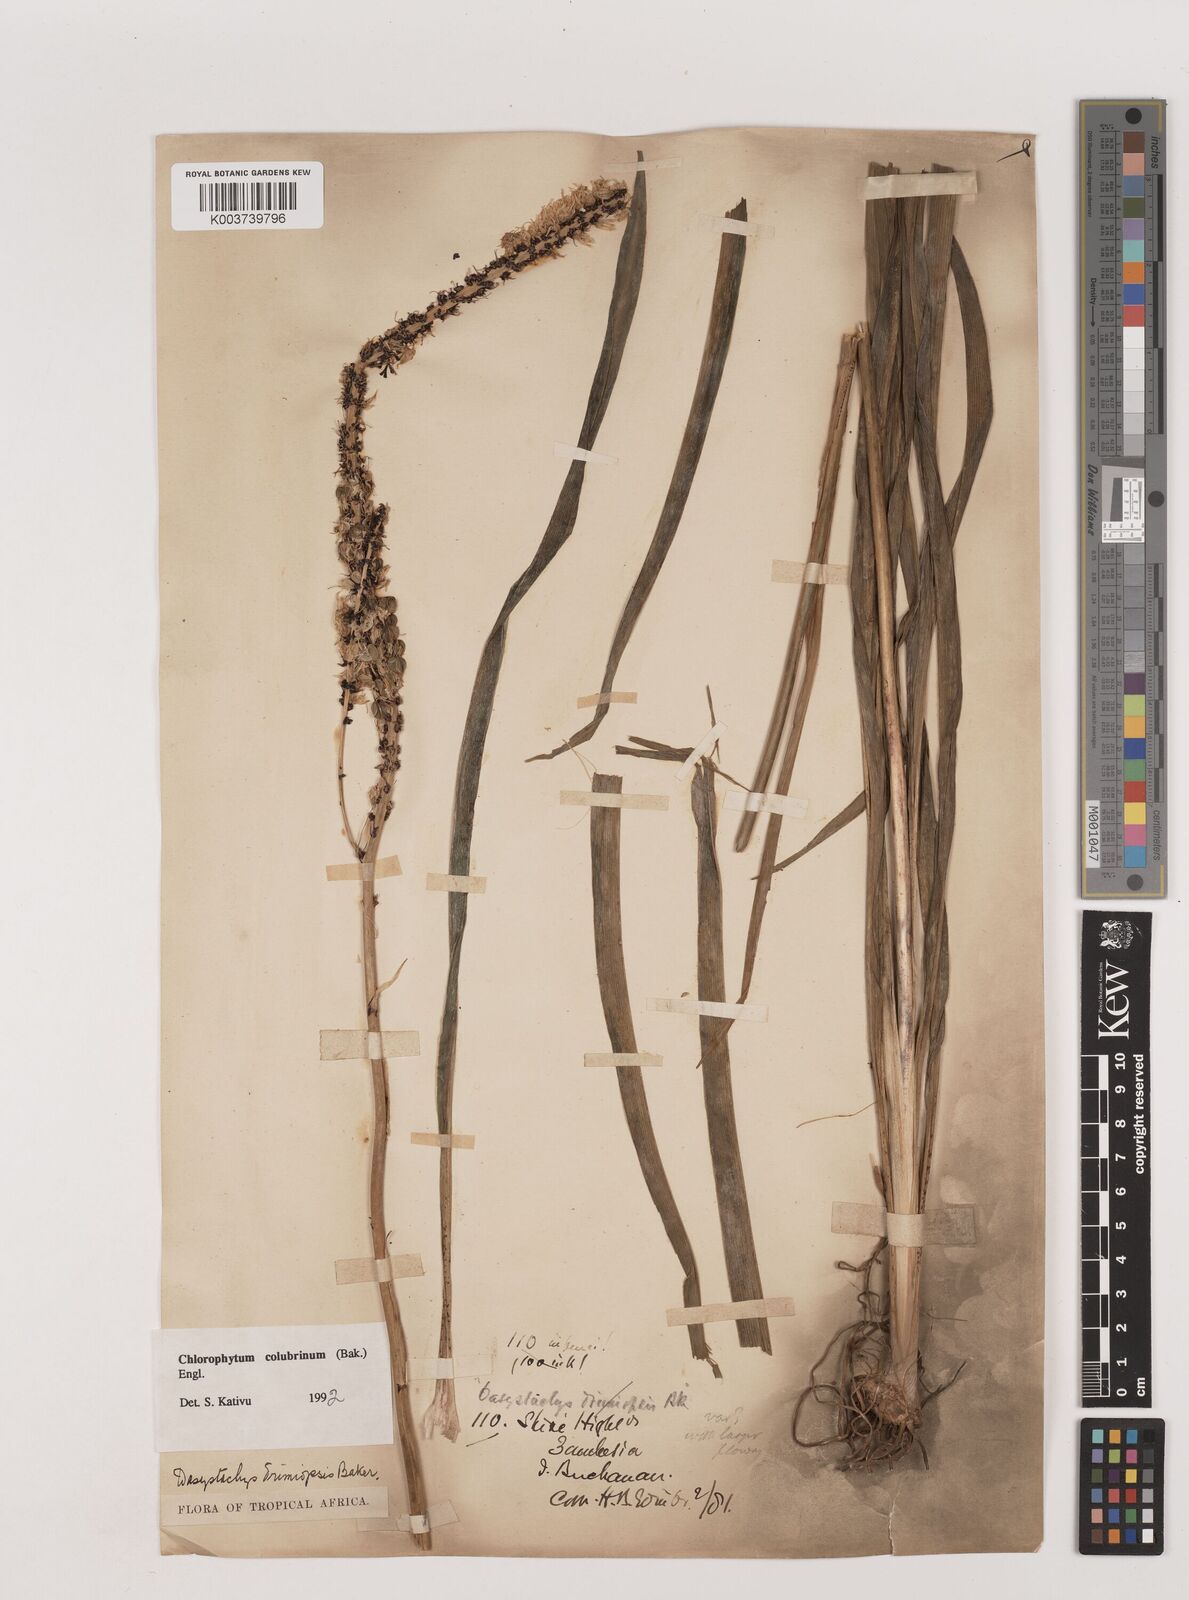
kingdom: Plantae
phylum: Tracheophyta
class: Liliopsida
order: Asparagales
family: Asparagaceae
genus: Chlorophytum
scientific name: Chlorophytum colubrinum
